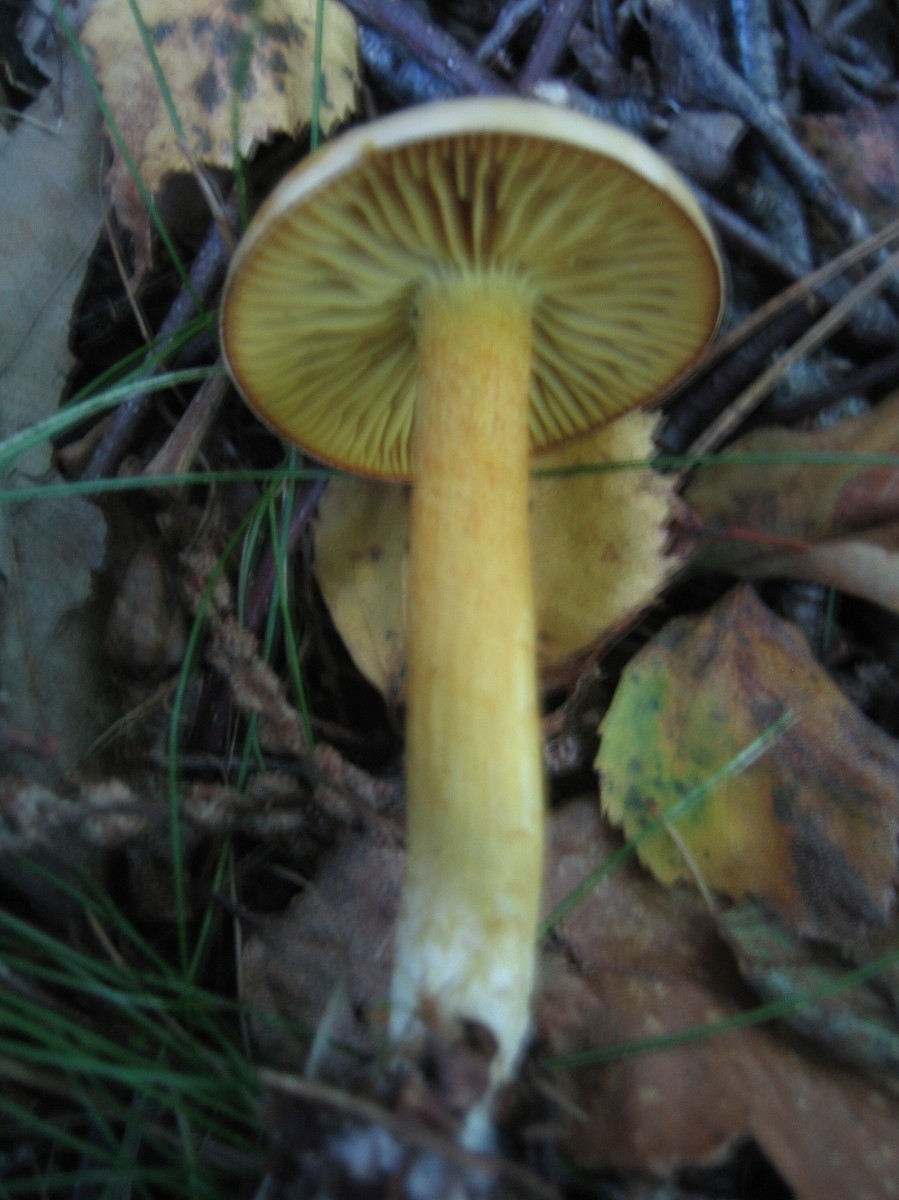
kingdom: Fungi
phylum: Basidiomycota
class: Agaricomycetes
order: Agaricales
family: Tricholomataceae
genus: Tricholoma
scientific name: Tricholoma sulphureum
